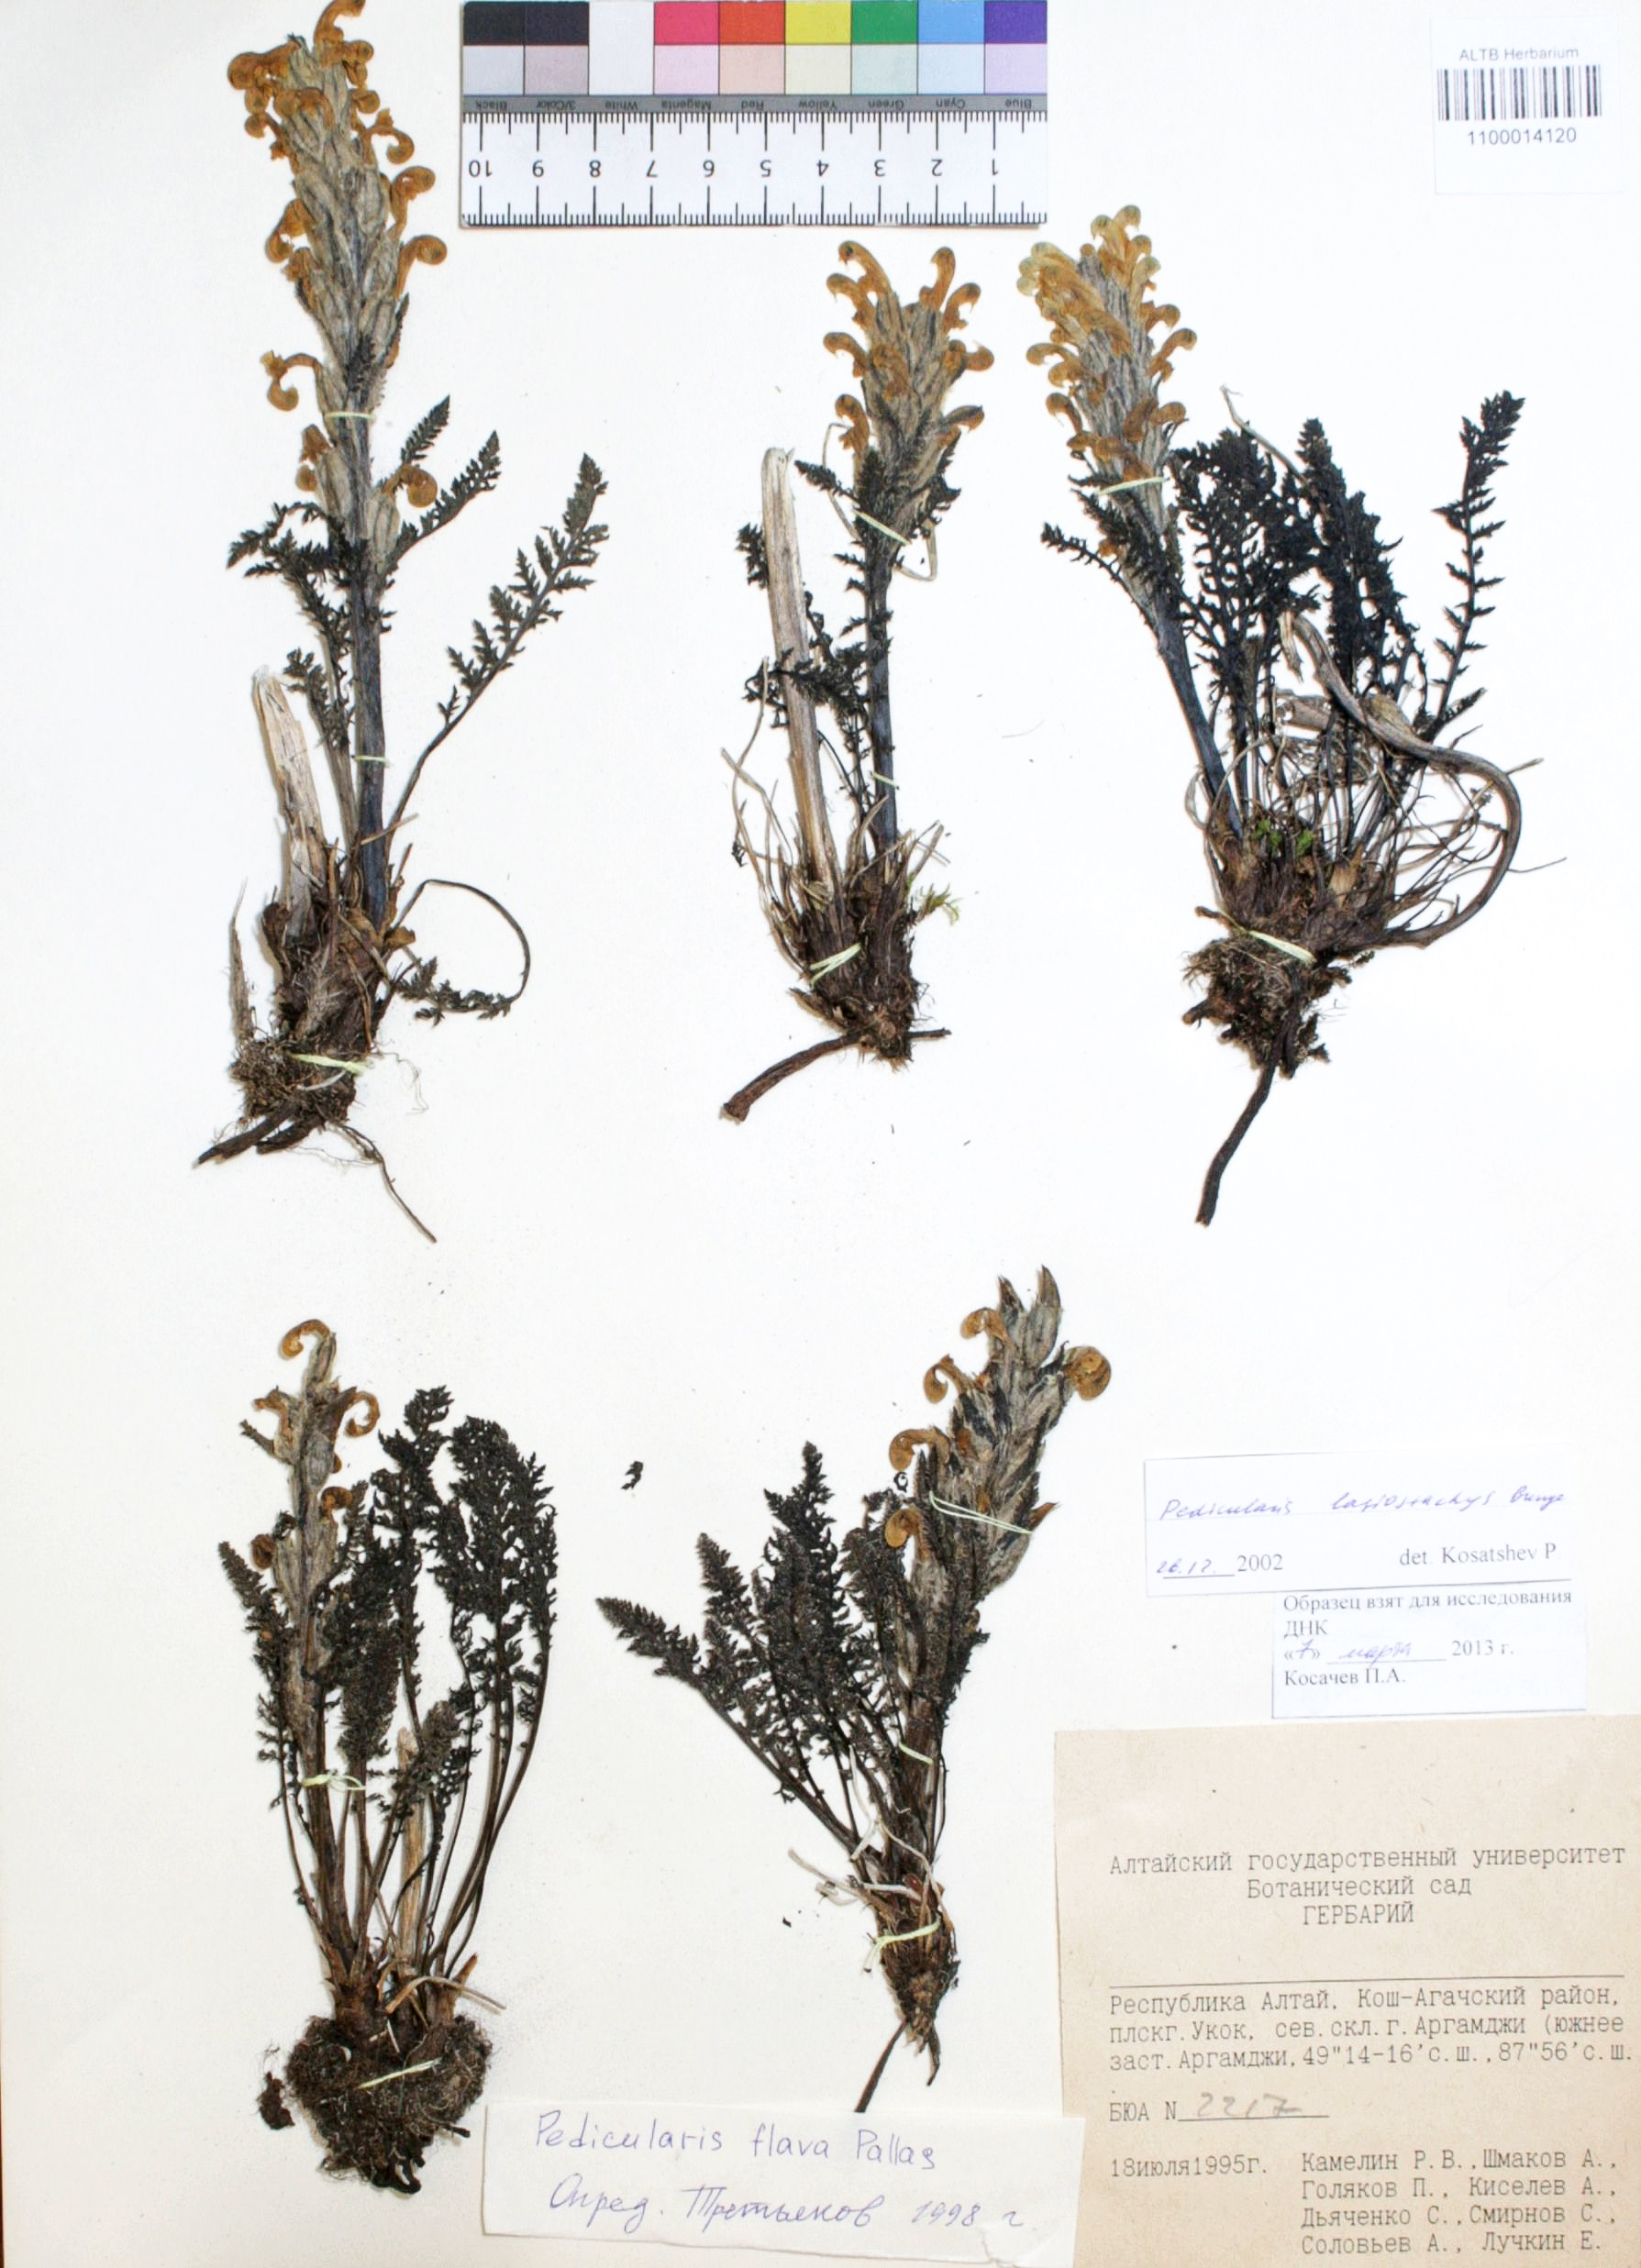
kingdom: Plantae
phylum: Tracheophyta
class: Magnoliopsida
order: Lamiales
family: Orobanchaceae
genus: Pedicularis
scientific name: Pedicularis lasiostachys
